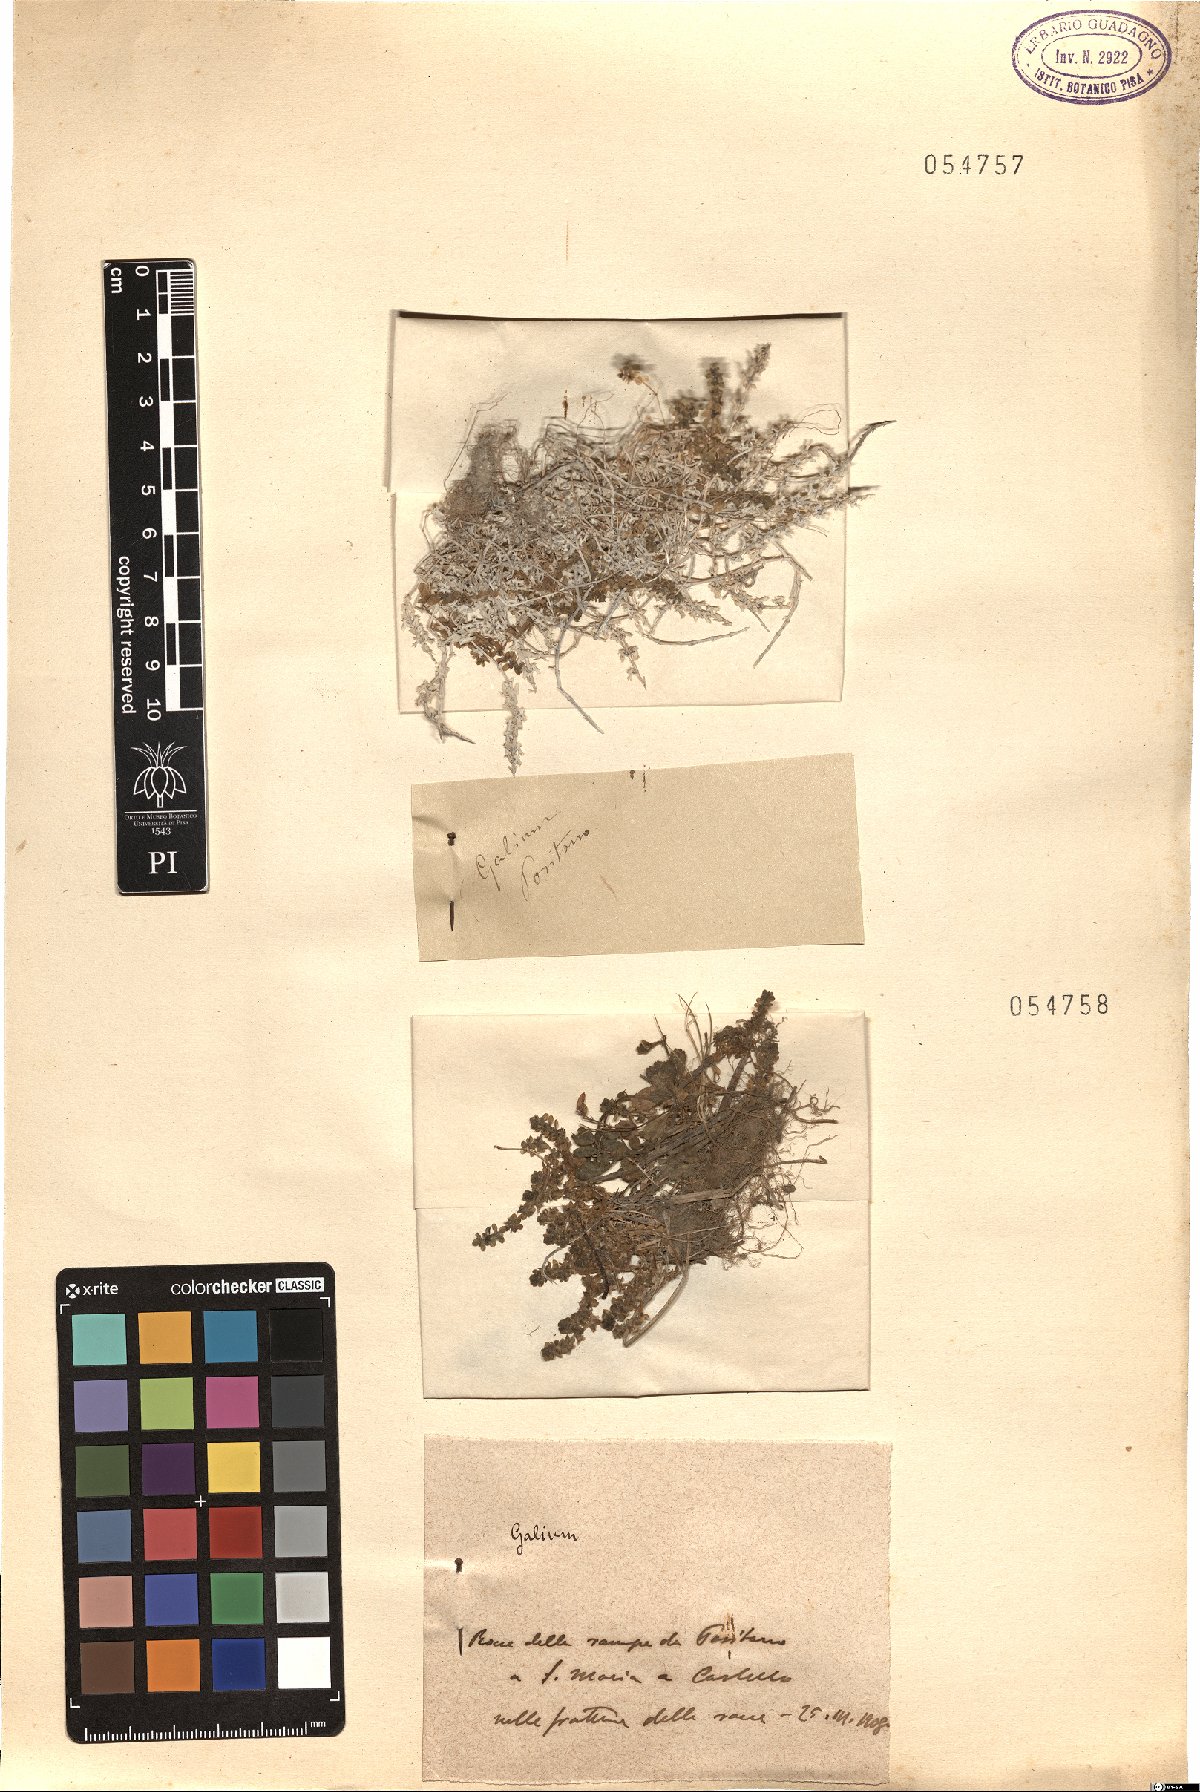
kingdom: Plantae
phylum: Tracheophyta
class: Magnoliopsida
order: Gentianales
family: Rubiaceae
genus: Galium
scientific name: Galium
